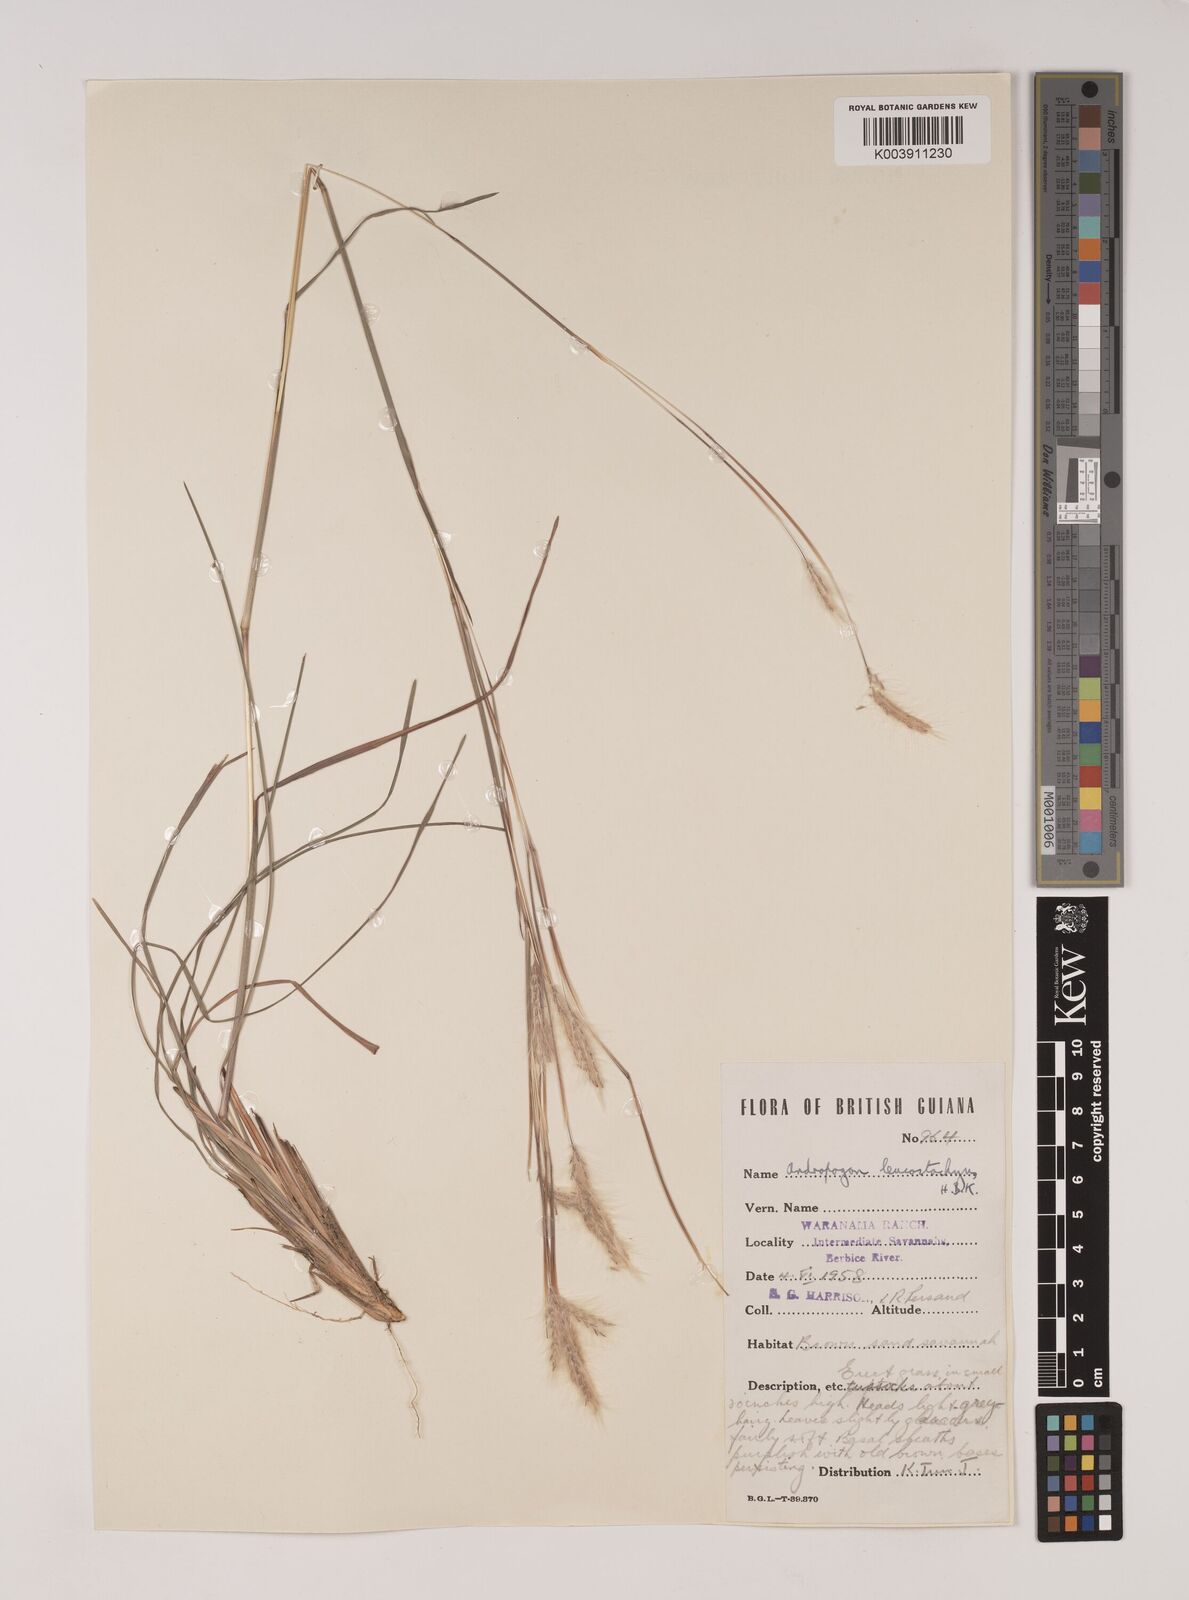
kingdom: Plantae
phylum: Tracheophyta
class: Liliopsida
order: Poales
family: Poaceae
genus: Andropogon
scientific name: Andropogon leucostachyus
